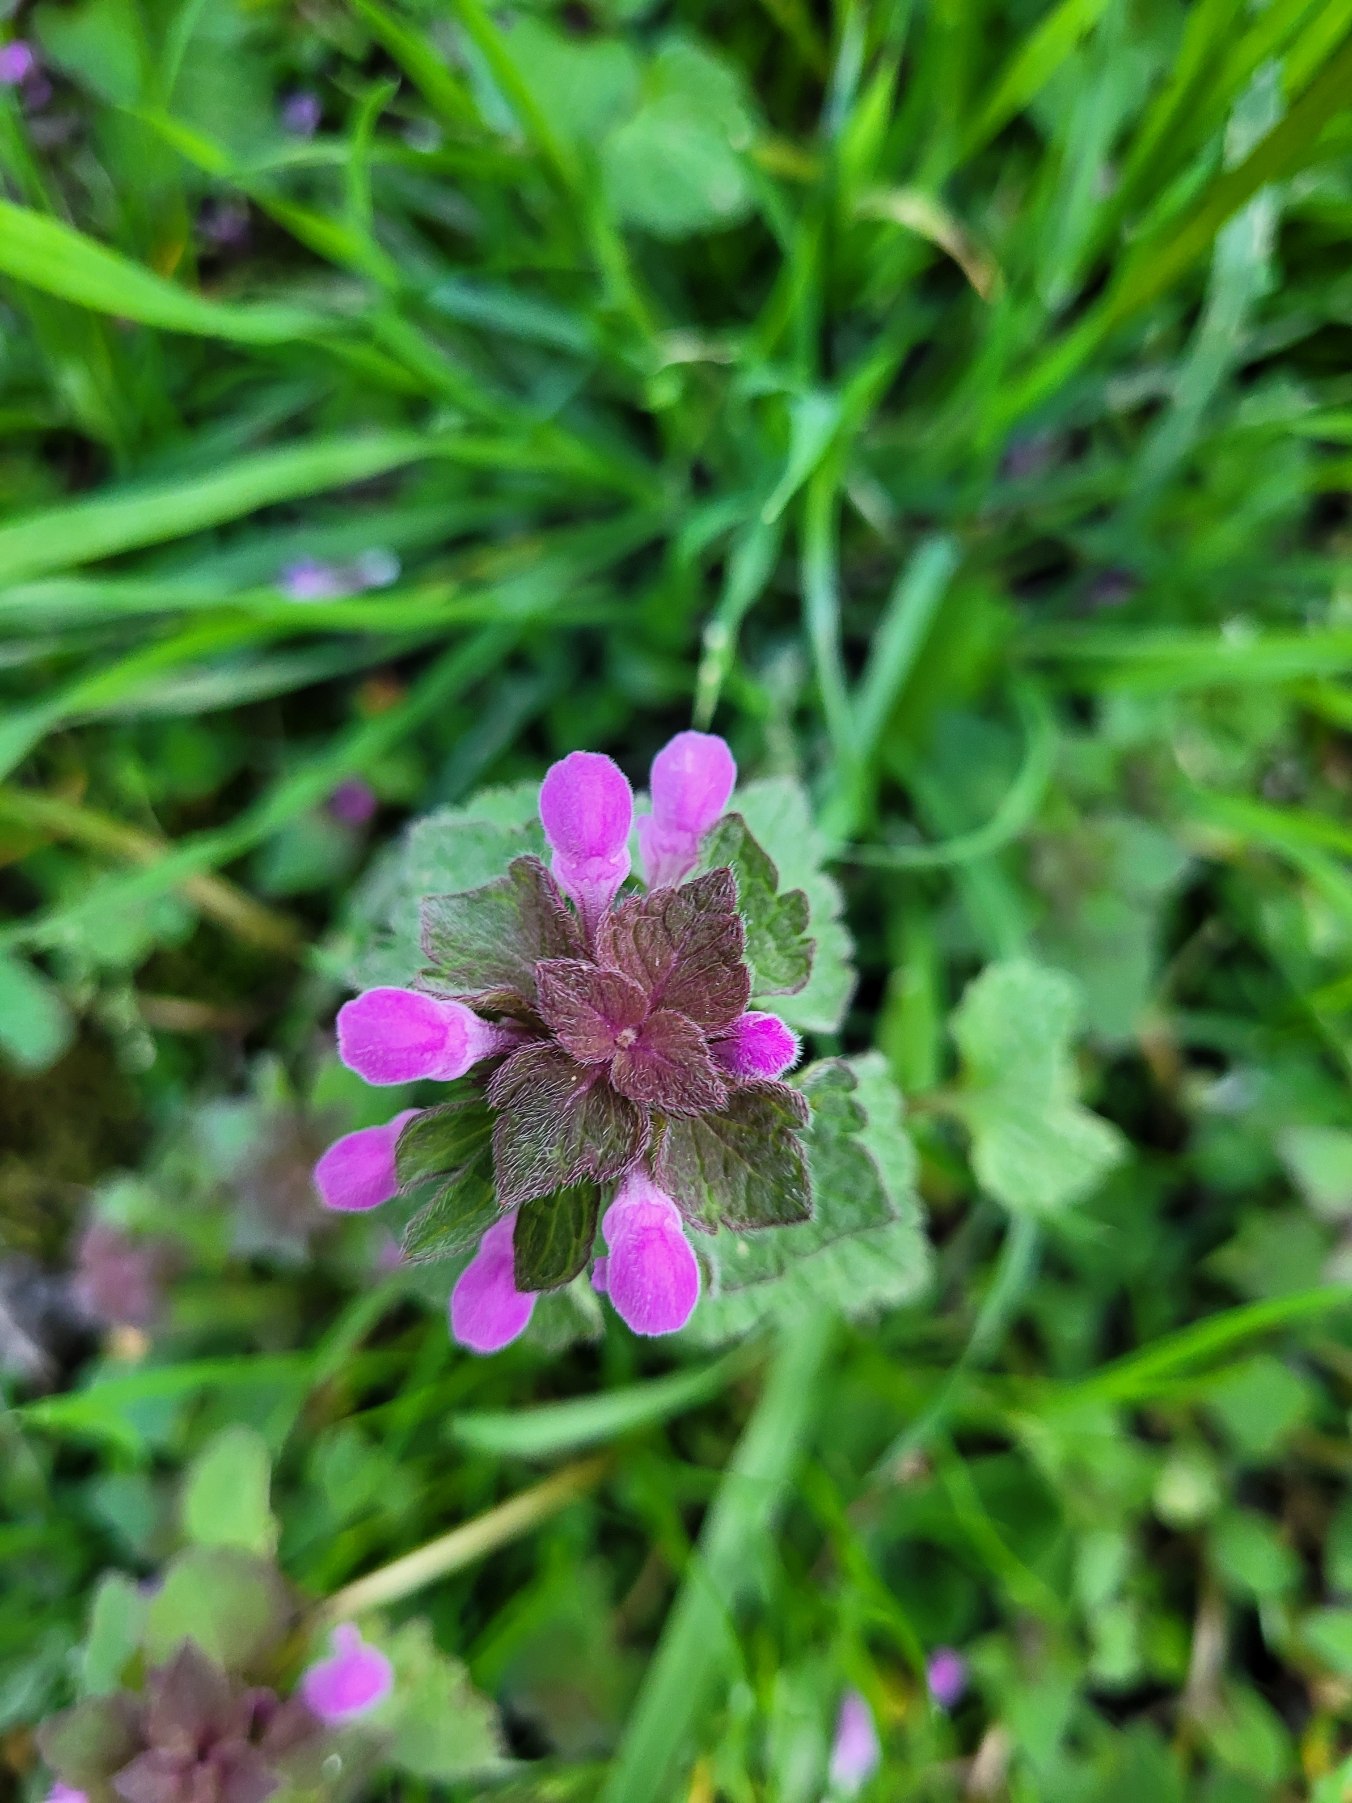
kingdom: Plantae
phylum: Tracheophyta
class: Magnoliopsida
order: Lamiales
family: Lamiaceae
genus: Lamium
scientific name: Lamium purpureum
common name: Rød tvetand
